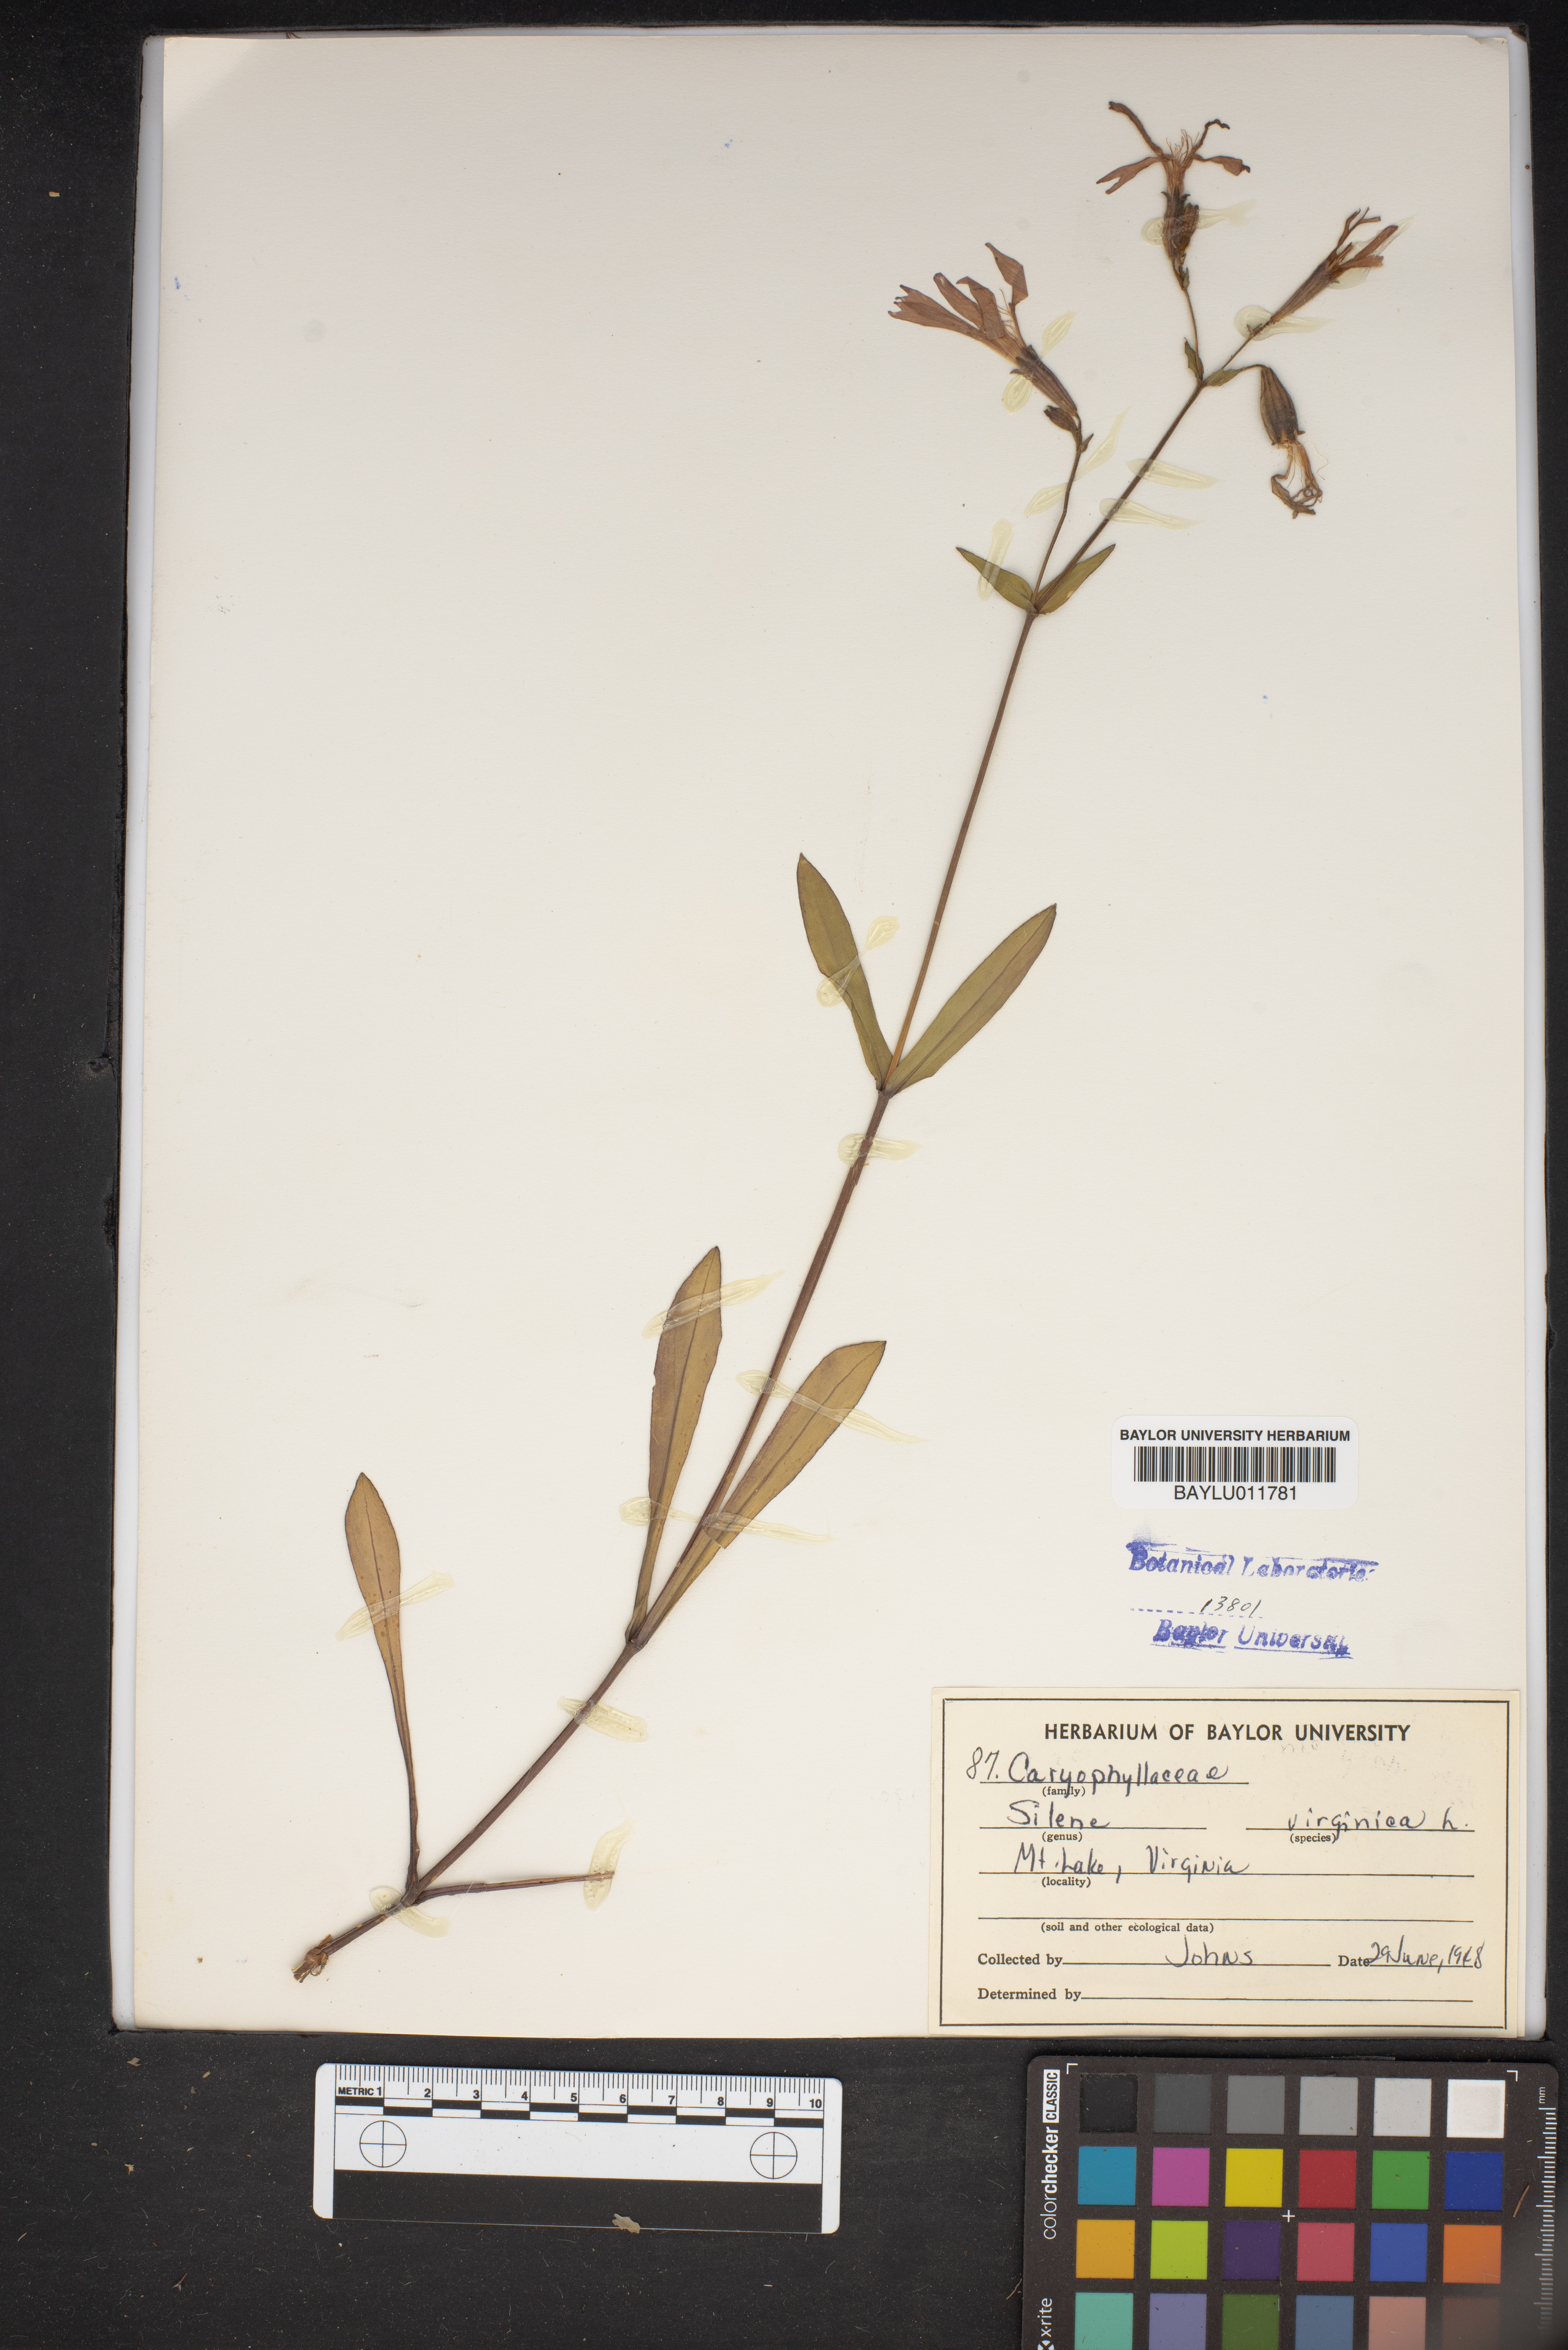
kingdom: Plantae
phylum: Tracheophyta
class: Magnoliopsida
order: Caryophyllales
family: Caryophyllaceae
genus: Silene
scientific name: Silene virginica
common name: Fire-pink
